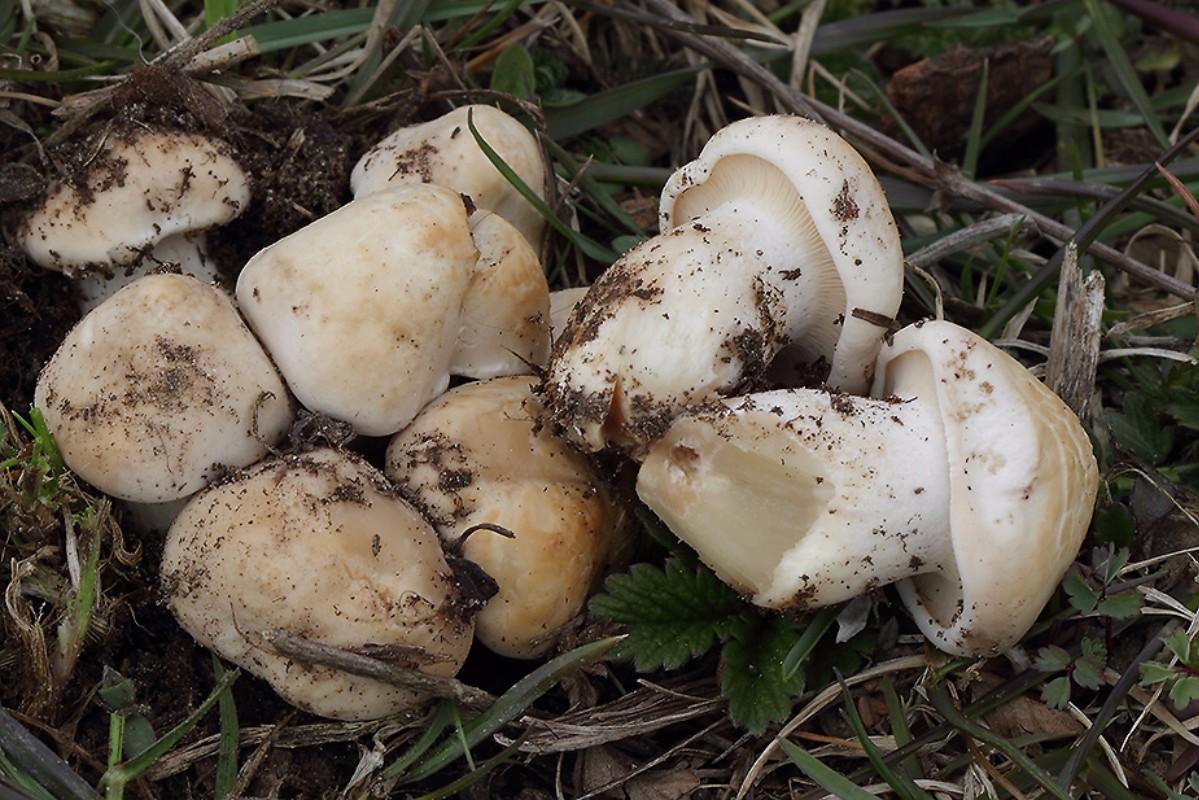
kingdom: Fungi
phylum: Basidiomycota
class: Agaricomycetes
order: Agaricales
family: Lyophyllaceae
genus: Calocybe
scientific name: Calocybe gambosa
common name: vårmusseron
